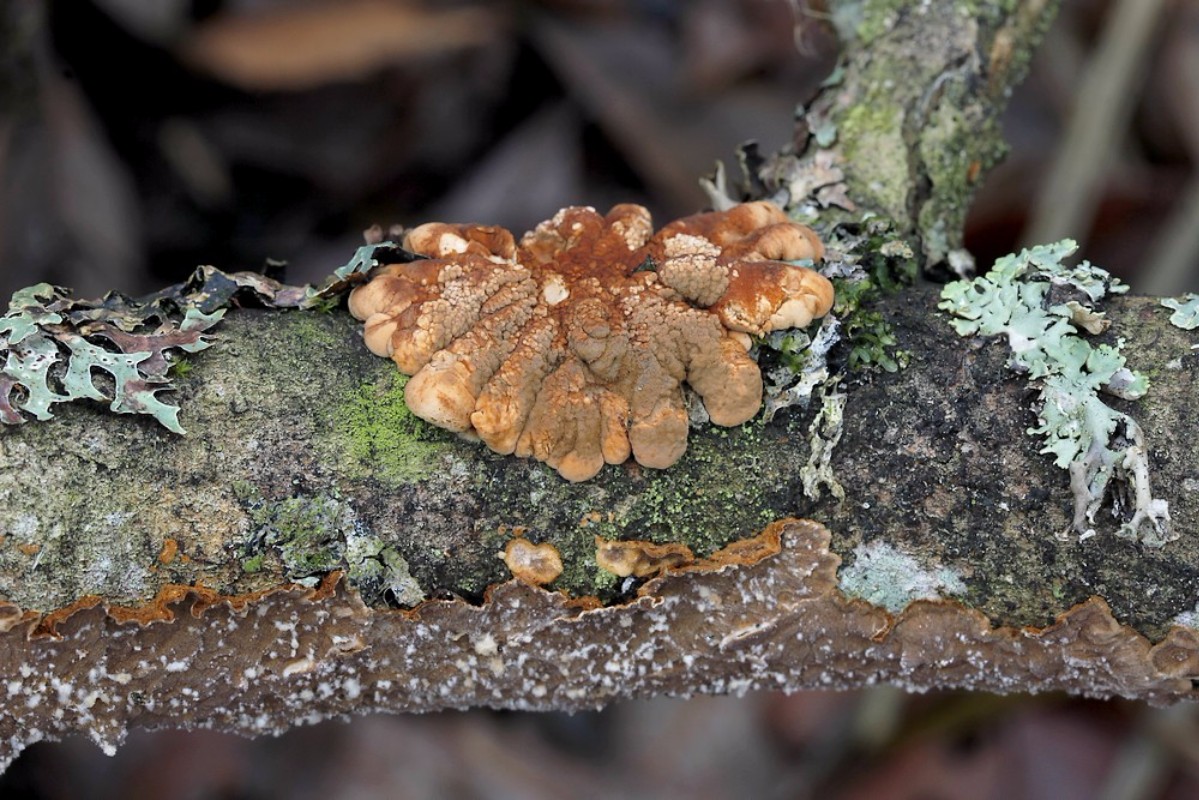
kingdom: Fungi
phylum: Ascomycota
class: Sordariomycetes
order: Hypocreales
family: Hypocreaceae
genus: Hypocreopsis
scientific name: Hypocreopsis lichenoides
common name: pilfinger
